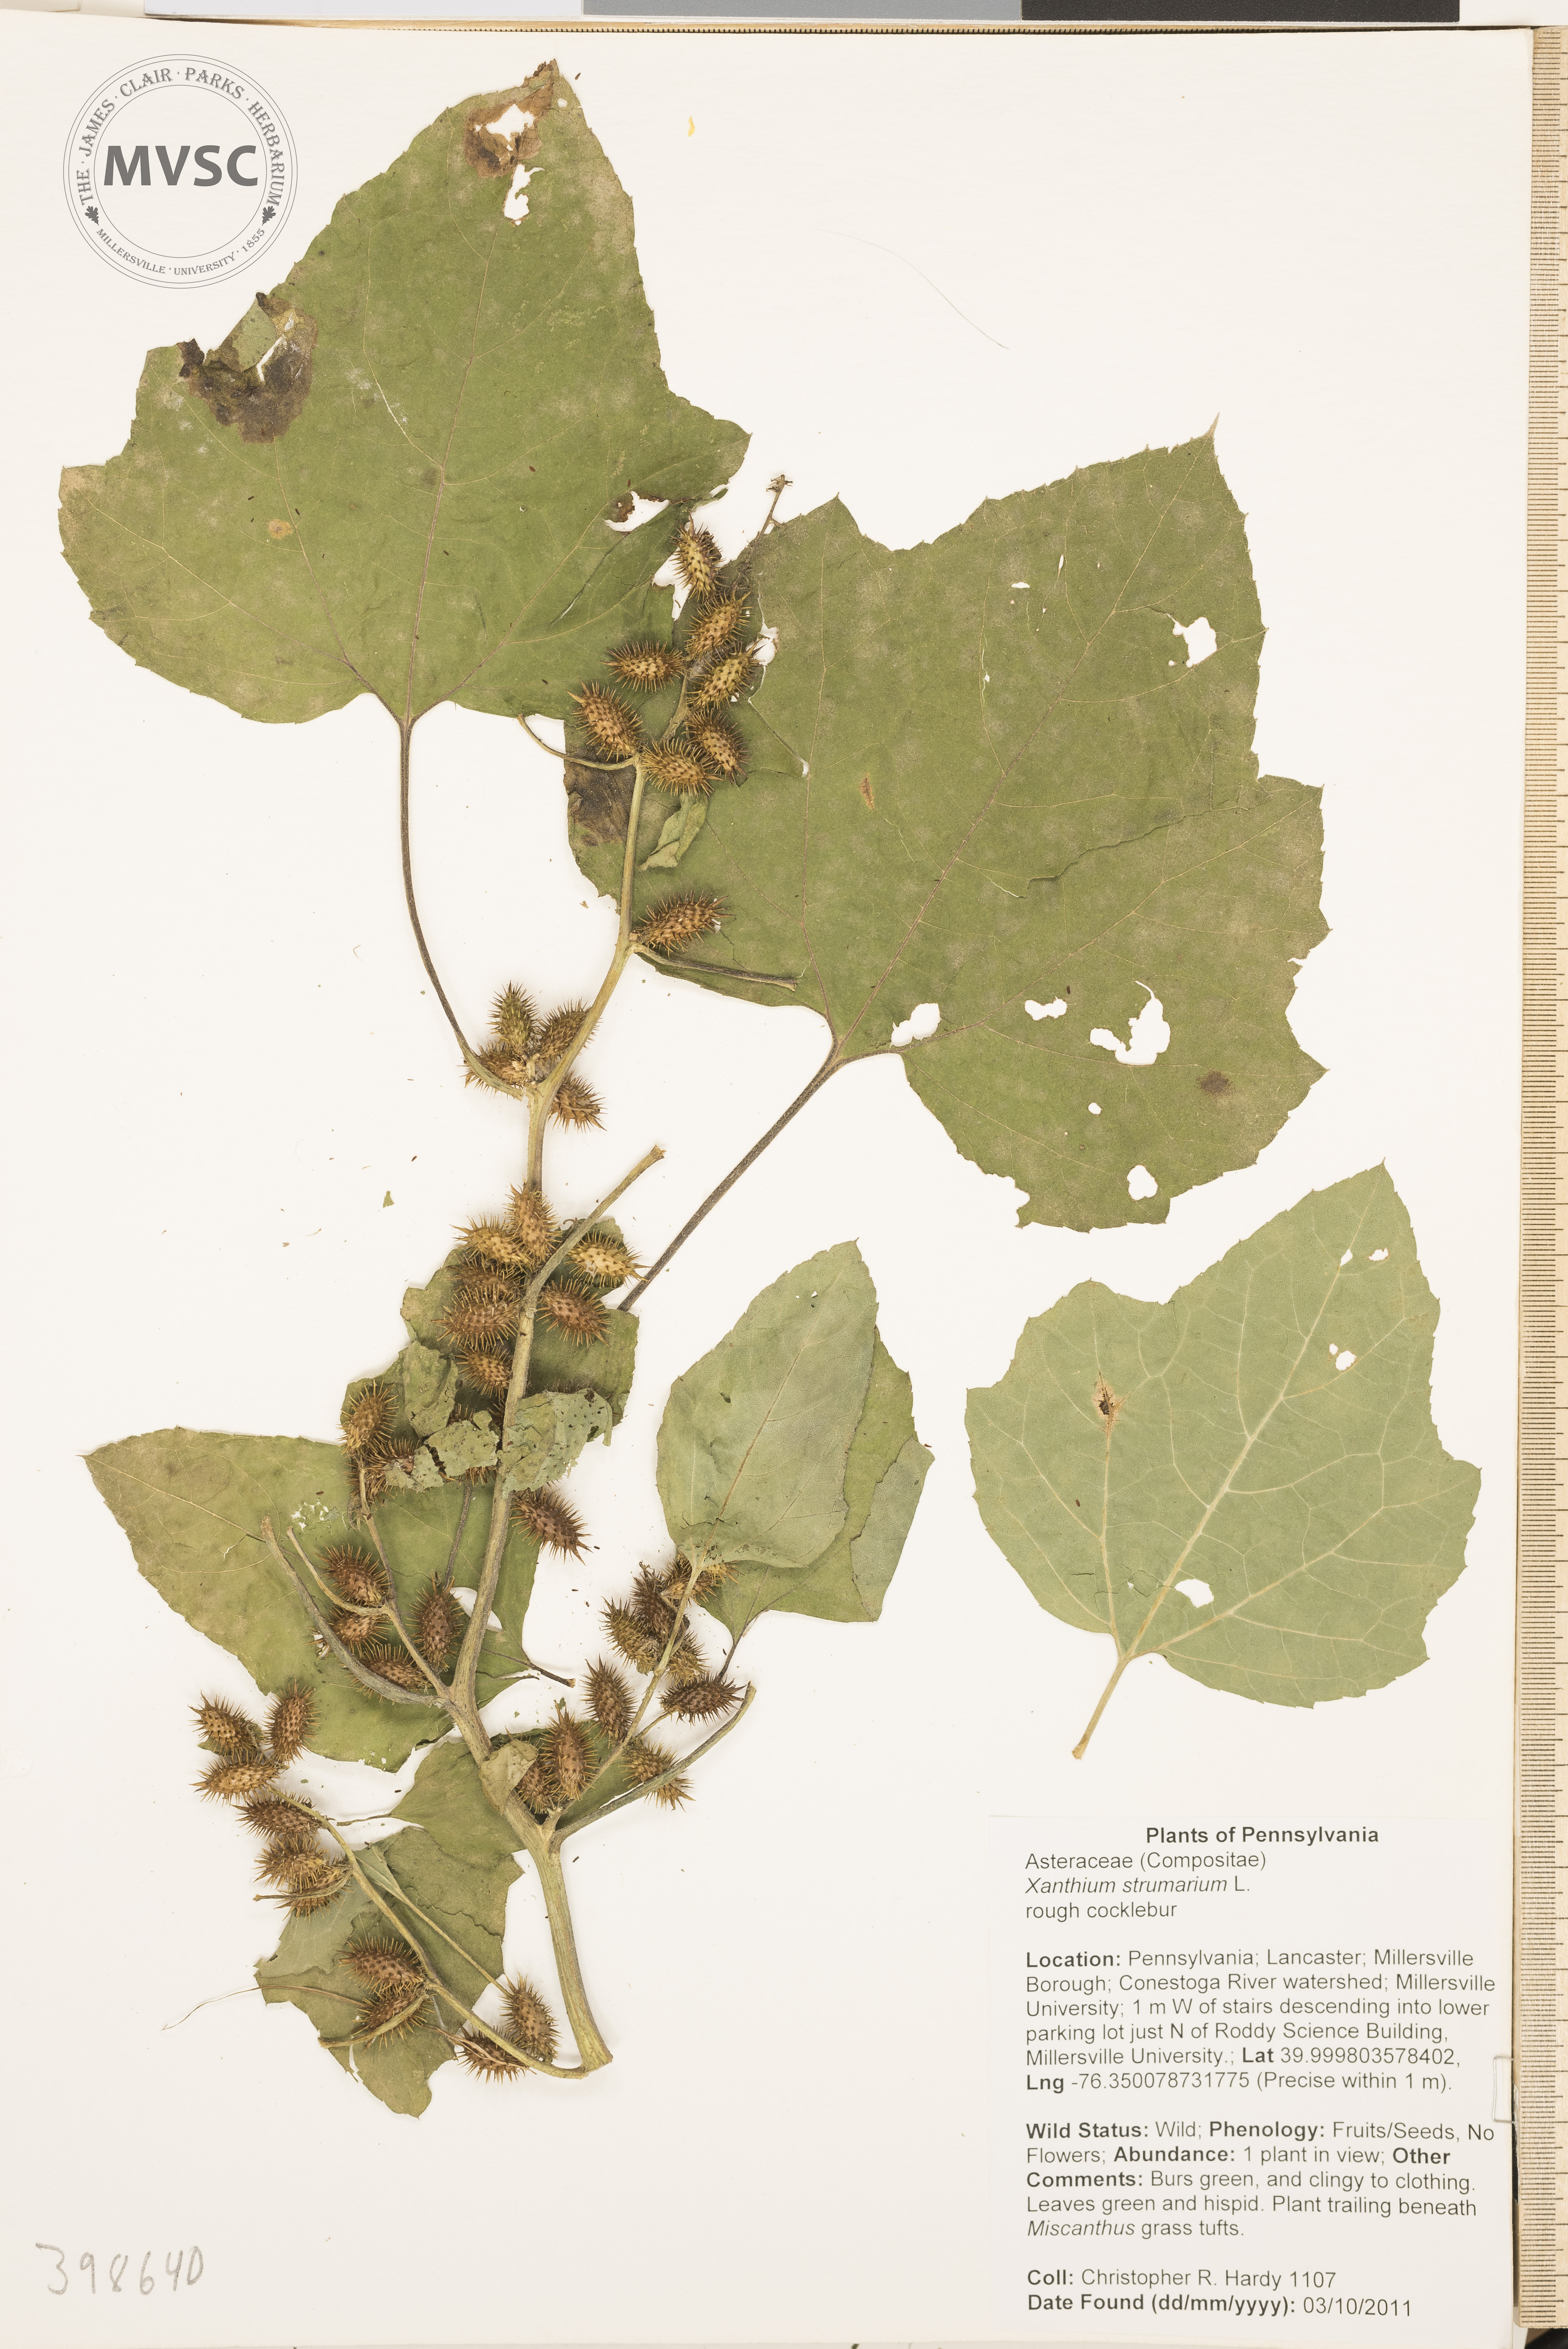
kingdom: Plantae
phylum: Tracheophyta
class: Magnoliopsida
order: Asterales
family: Asteraceae
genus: Xanthium
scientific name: Xanthium strumarium
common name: Common cocklebur
